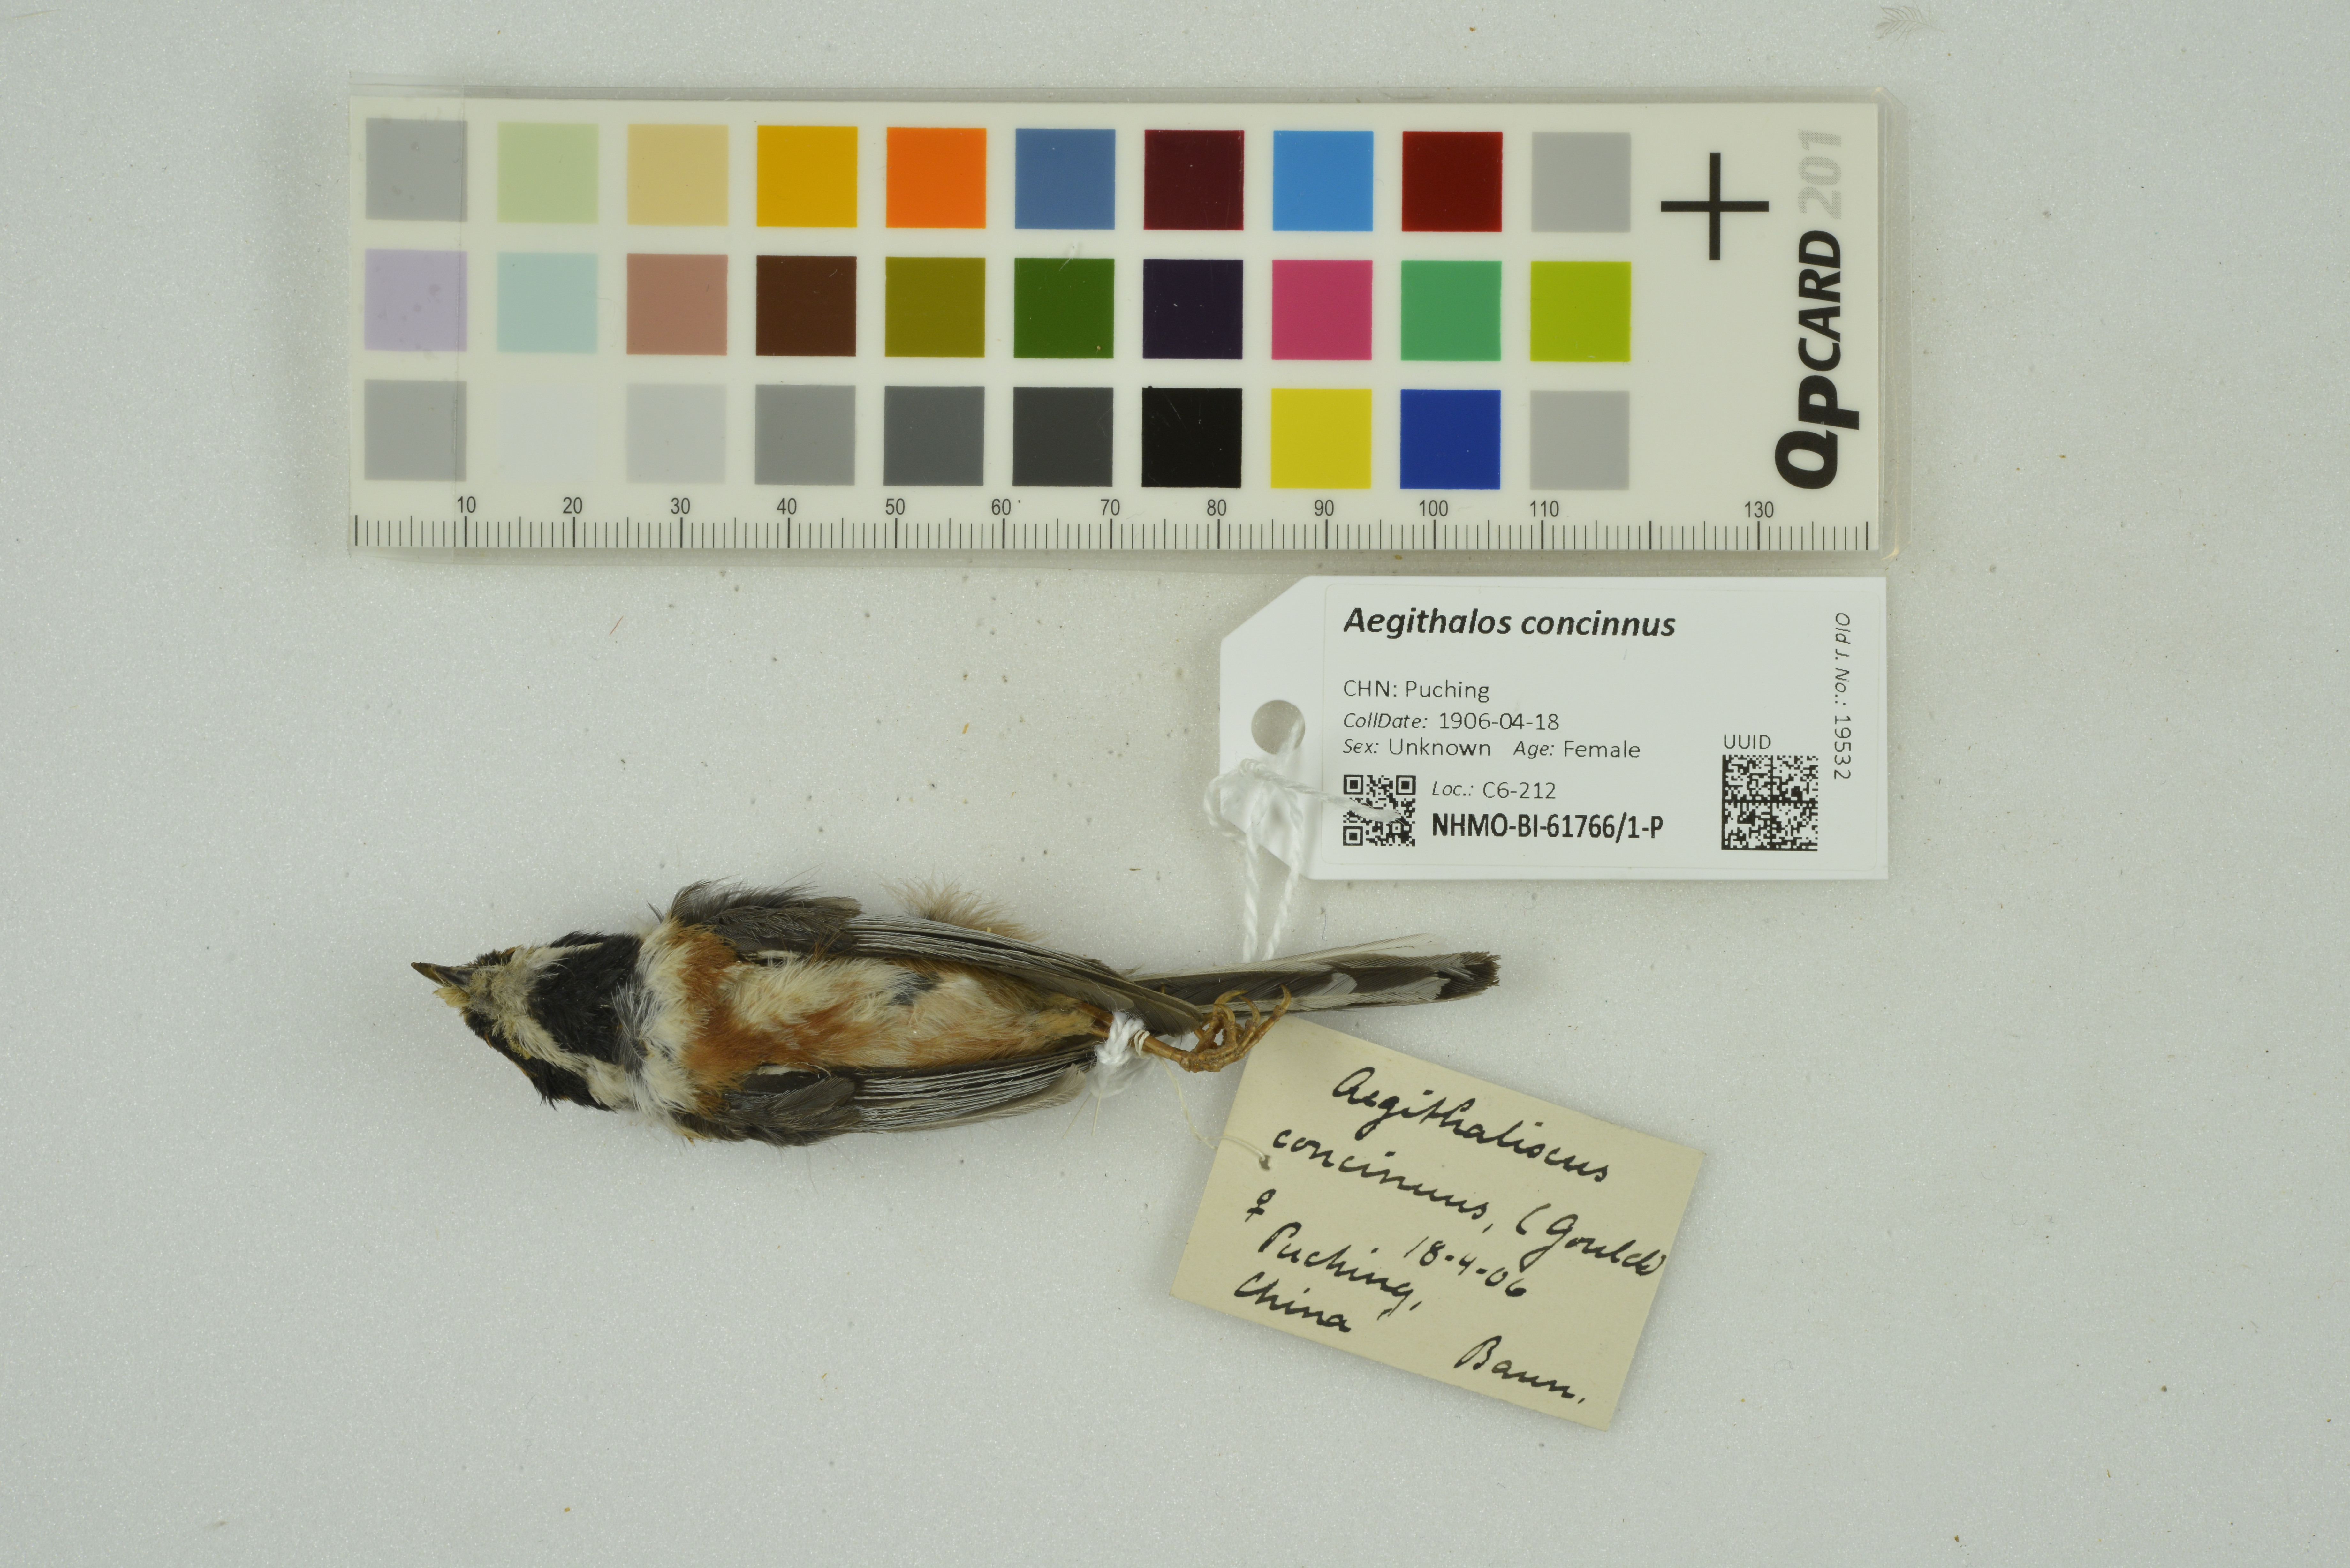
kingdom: Animalia
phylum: Chordata
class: Aves
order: Passeriformes
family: Aegithalidae
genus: Aegithalos
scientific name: Aegithalos concinnus
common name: Black-throated bushtit
